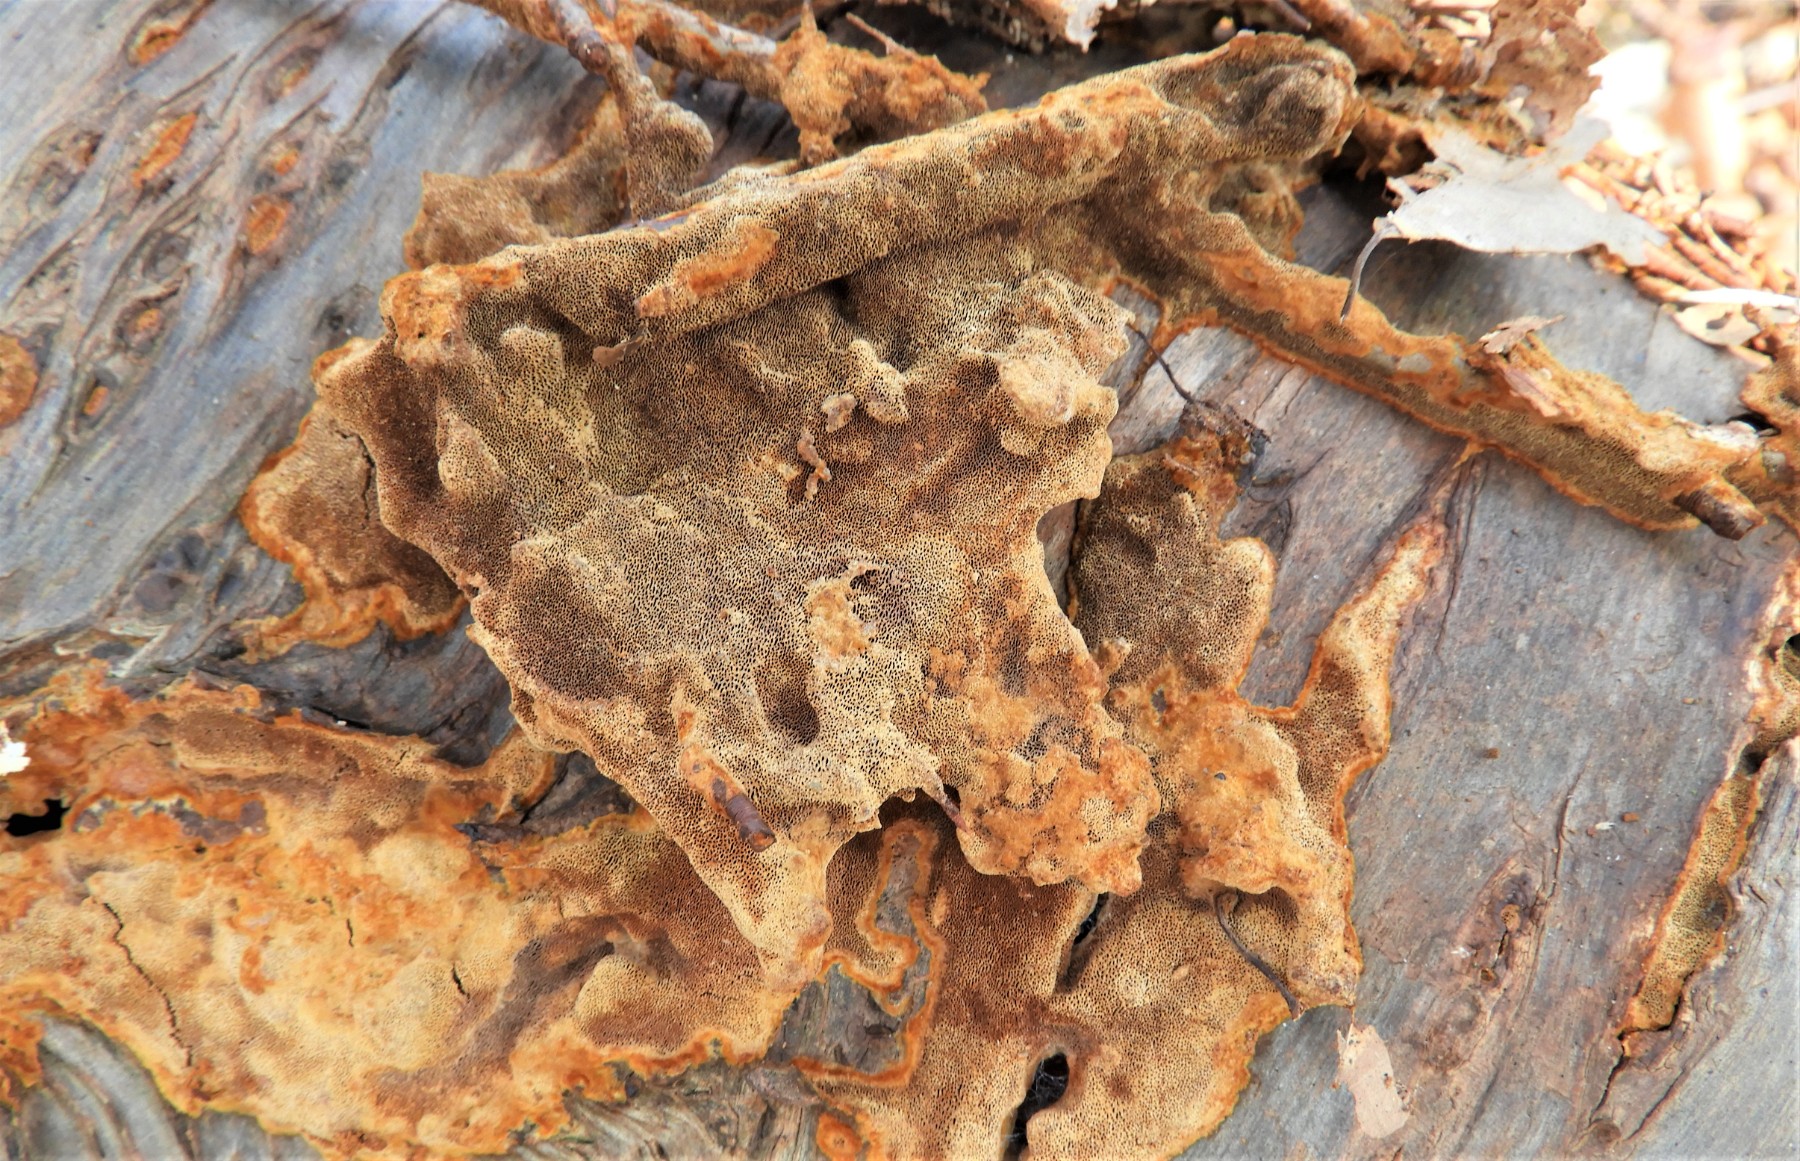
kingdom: Fungi
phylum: Basidiomycota
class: Agaricomycetes
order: Hymenochaetales
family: Hymenochaetaceae
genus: Fuscoporia
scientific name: Fuscoporia ferrea
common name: skorpe-ildporesvamp
